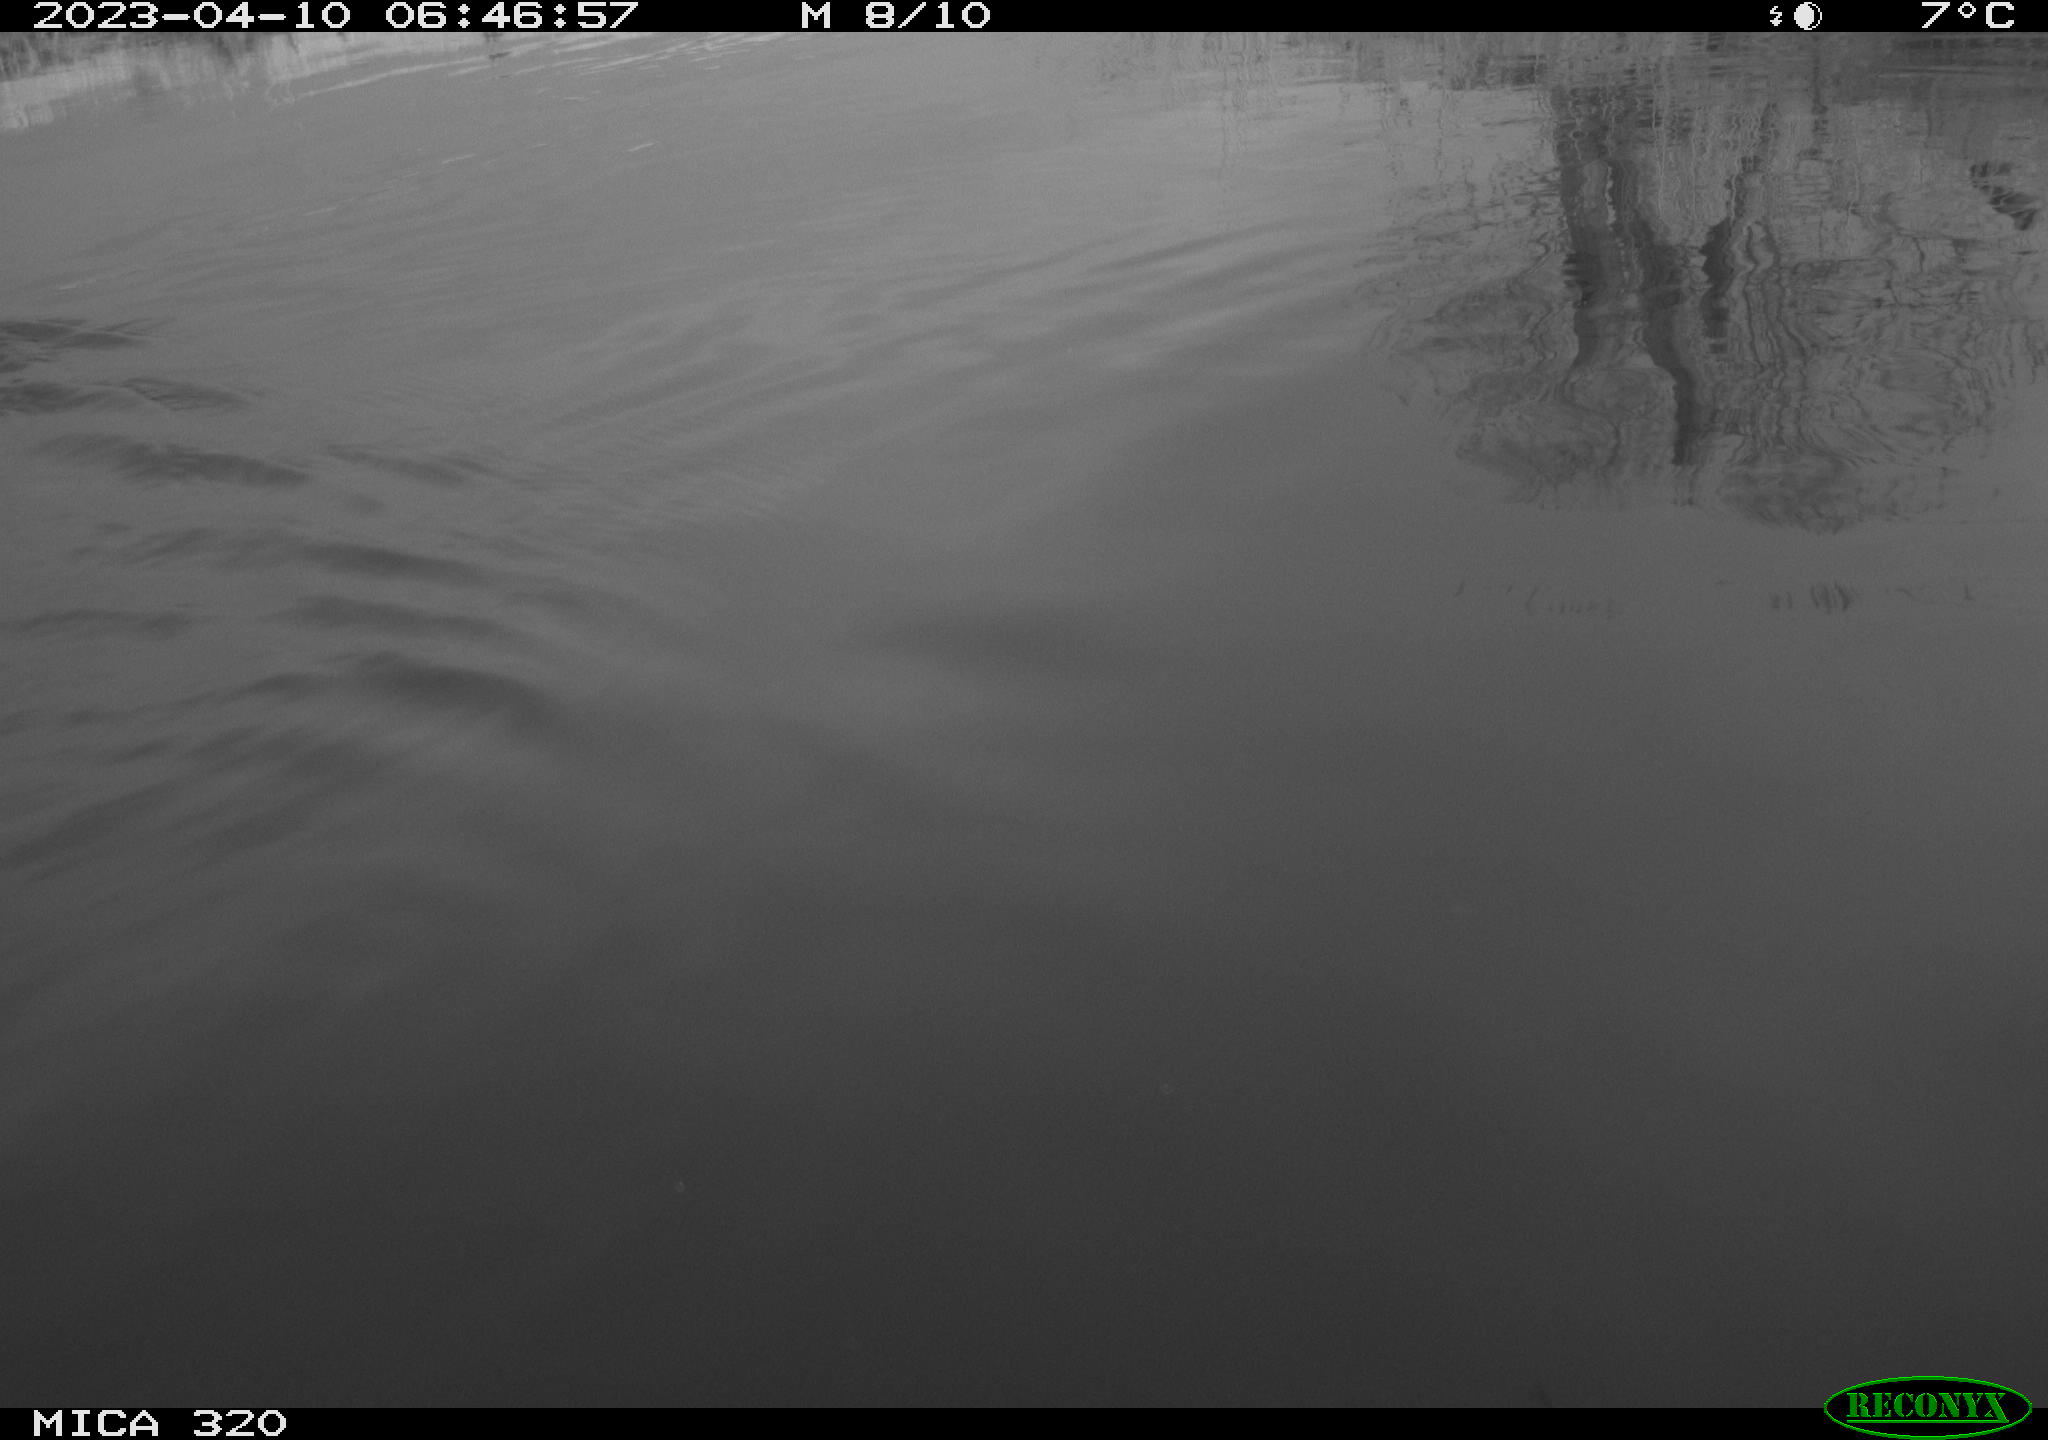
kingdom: Animalia
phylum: Chordata
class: Aves
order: Anseriformes
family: Anatidae
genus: Anas
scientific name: Anas
